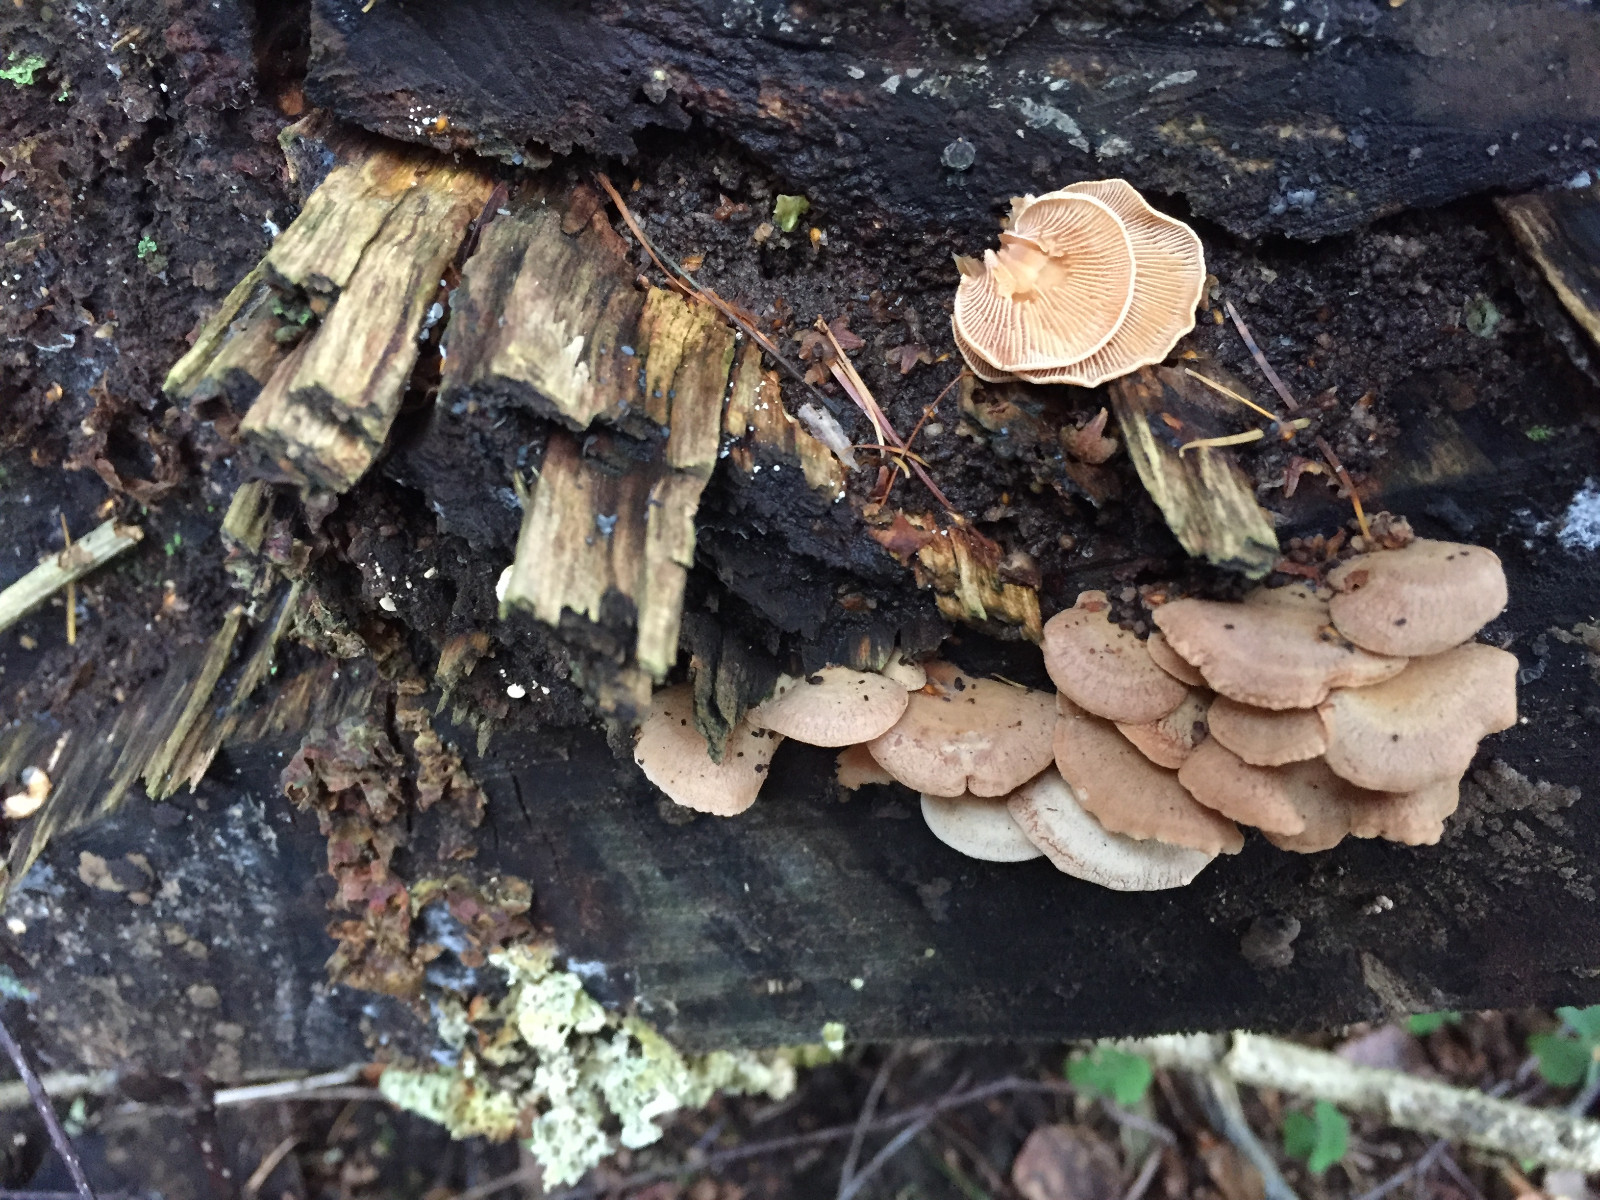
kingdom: Fungi
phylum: Basidiomycota
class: Agaricomycetes
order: Agaricales
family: Mycenaceae
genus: Panellus
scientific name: Panellus stipticus
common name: kliddet epaulethat
